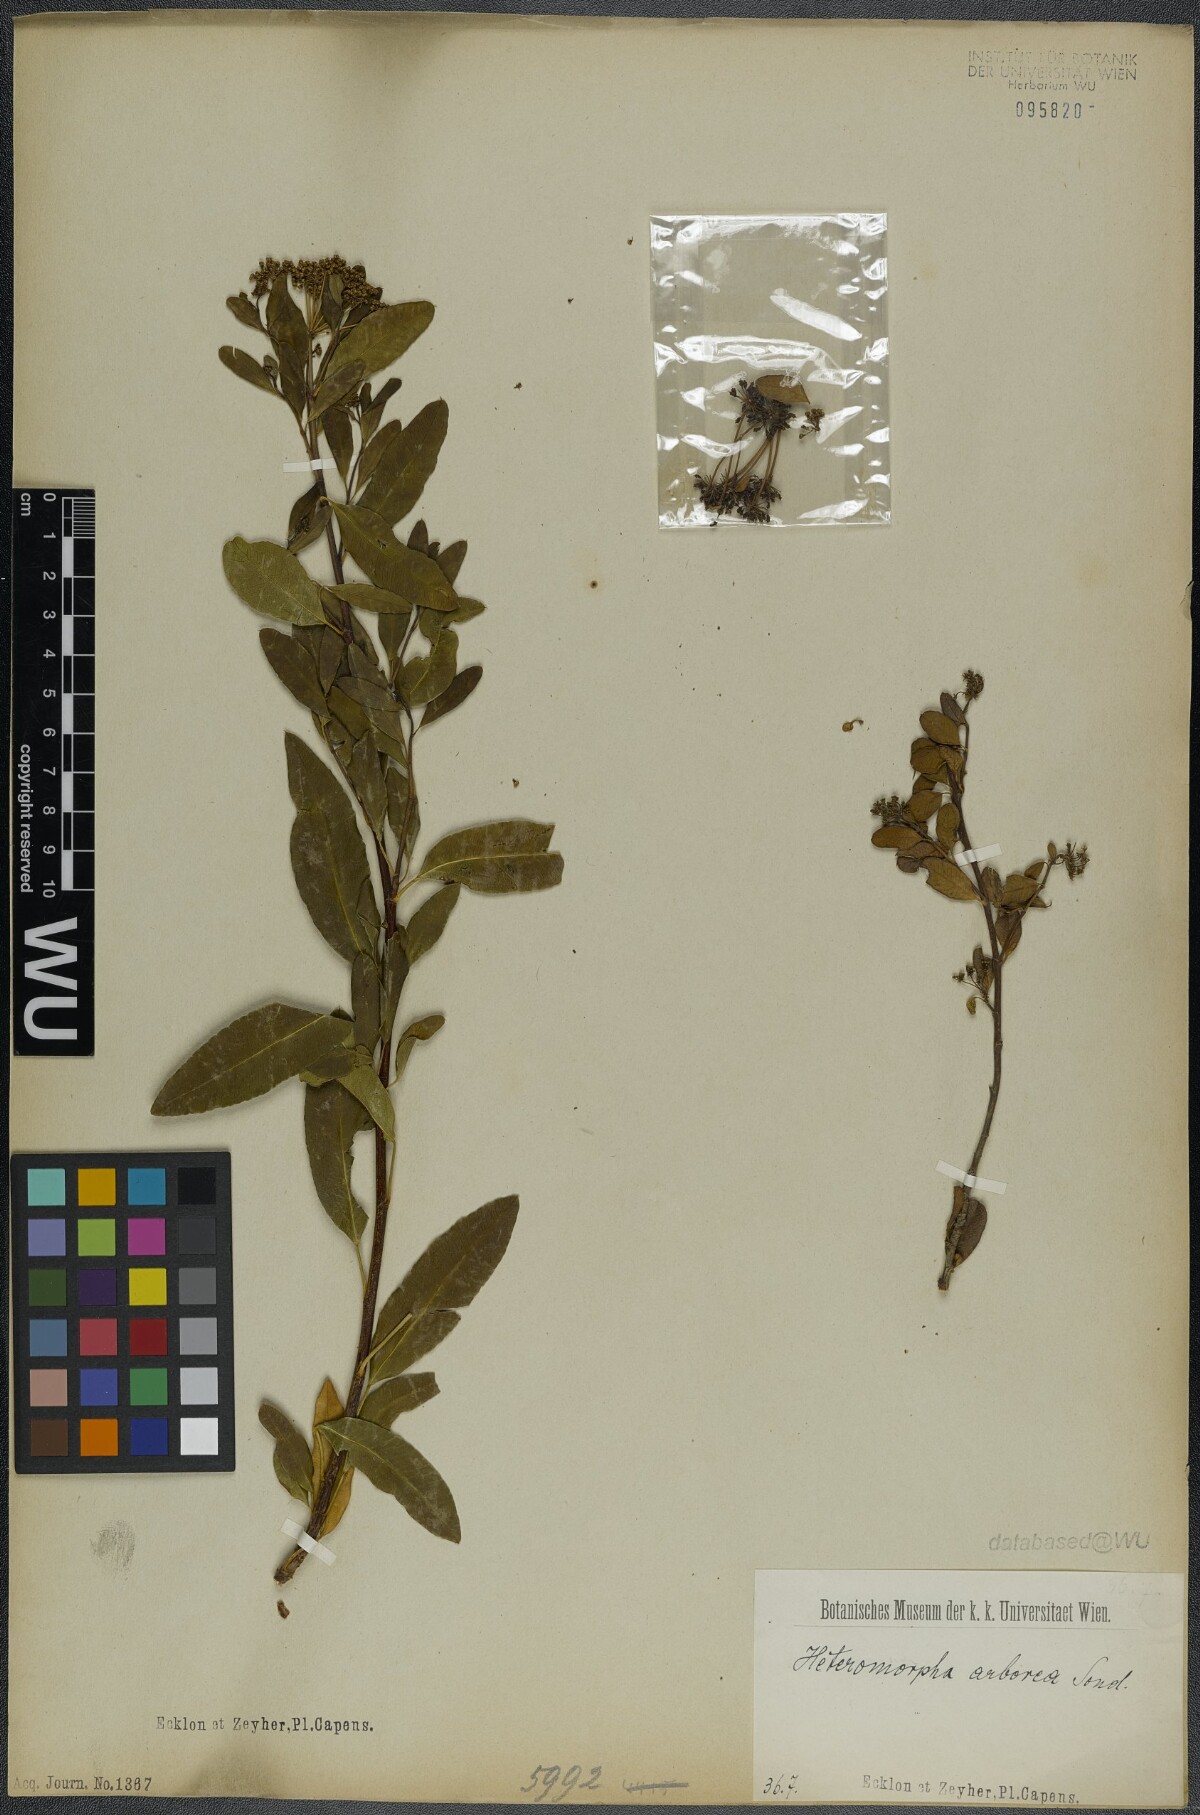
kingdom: Plantae
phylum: Tracheophyta
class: Magnoliopsida
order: Apiales
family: Apiaceae
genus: Heteromorpha
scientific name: Heteromorpha arborescens
